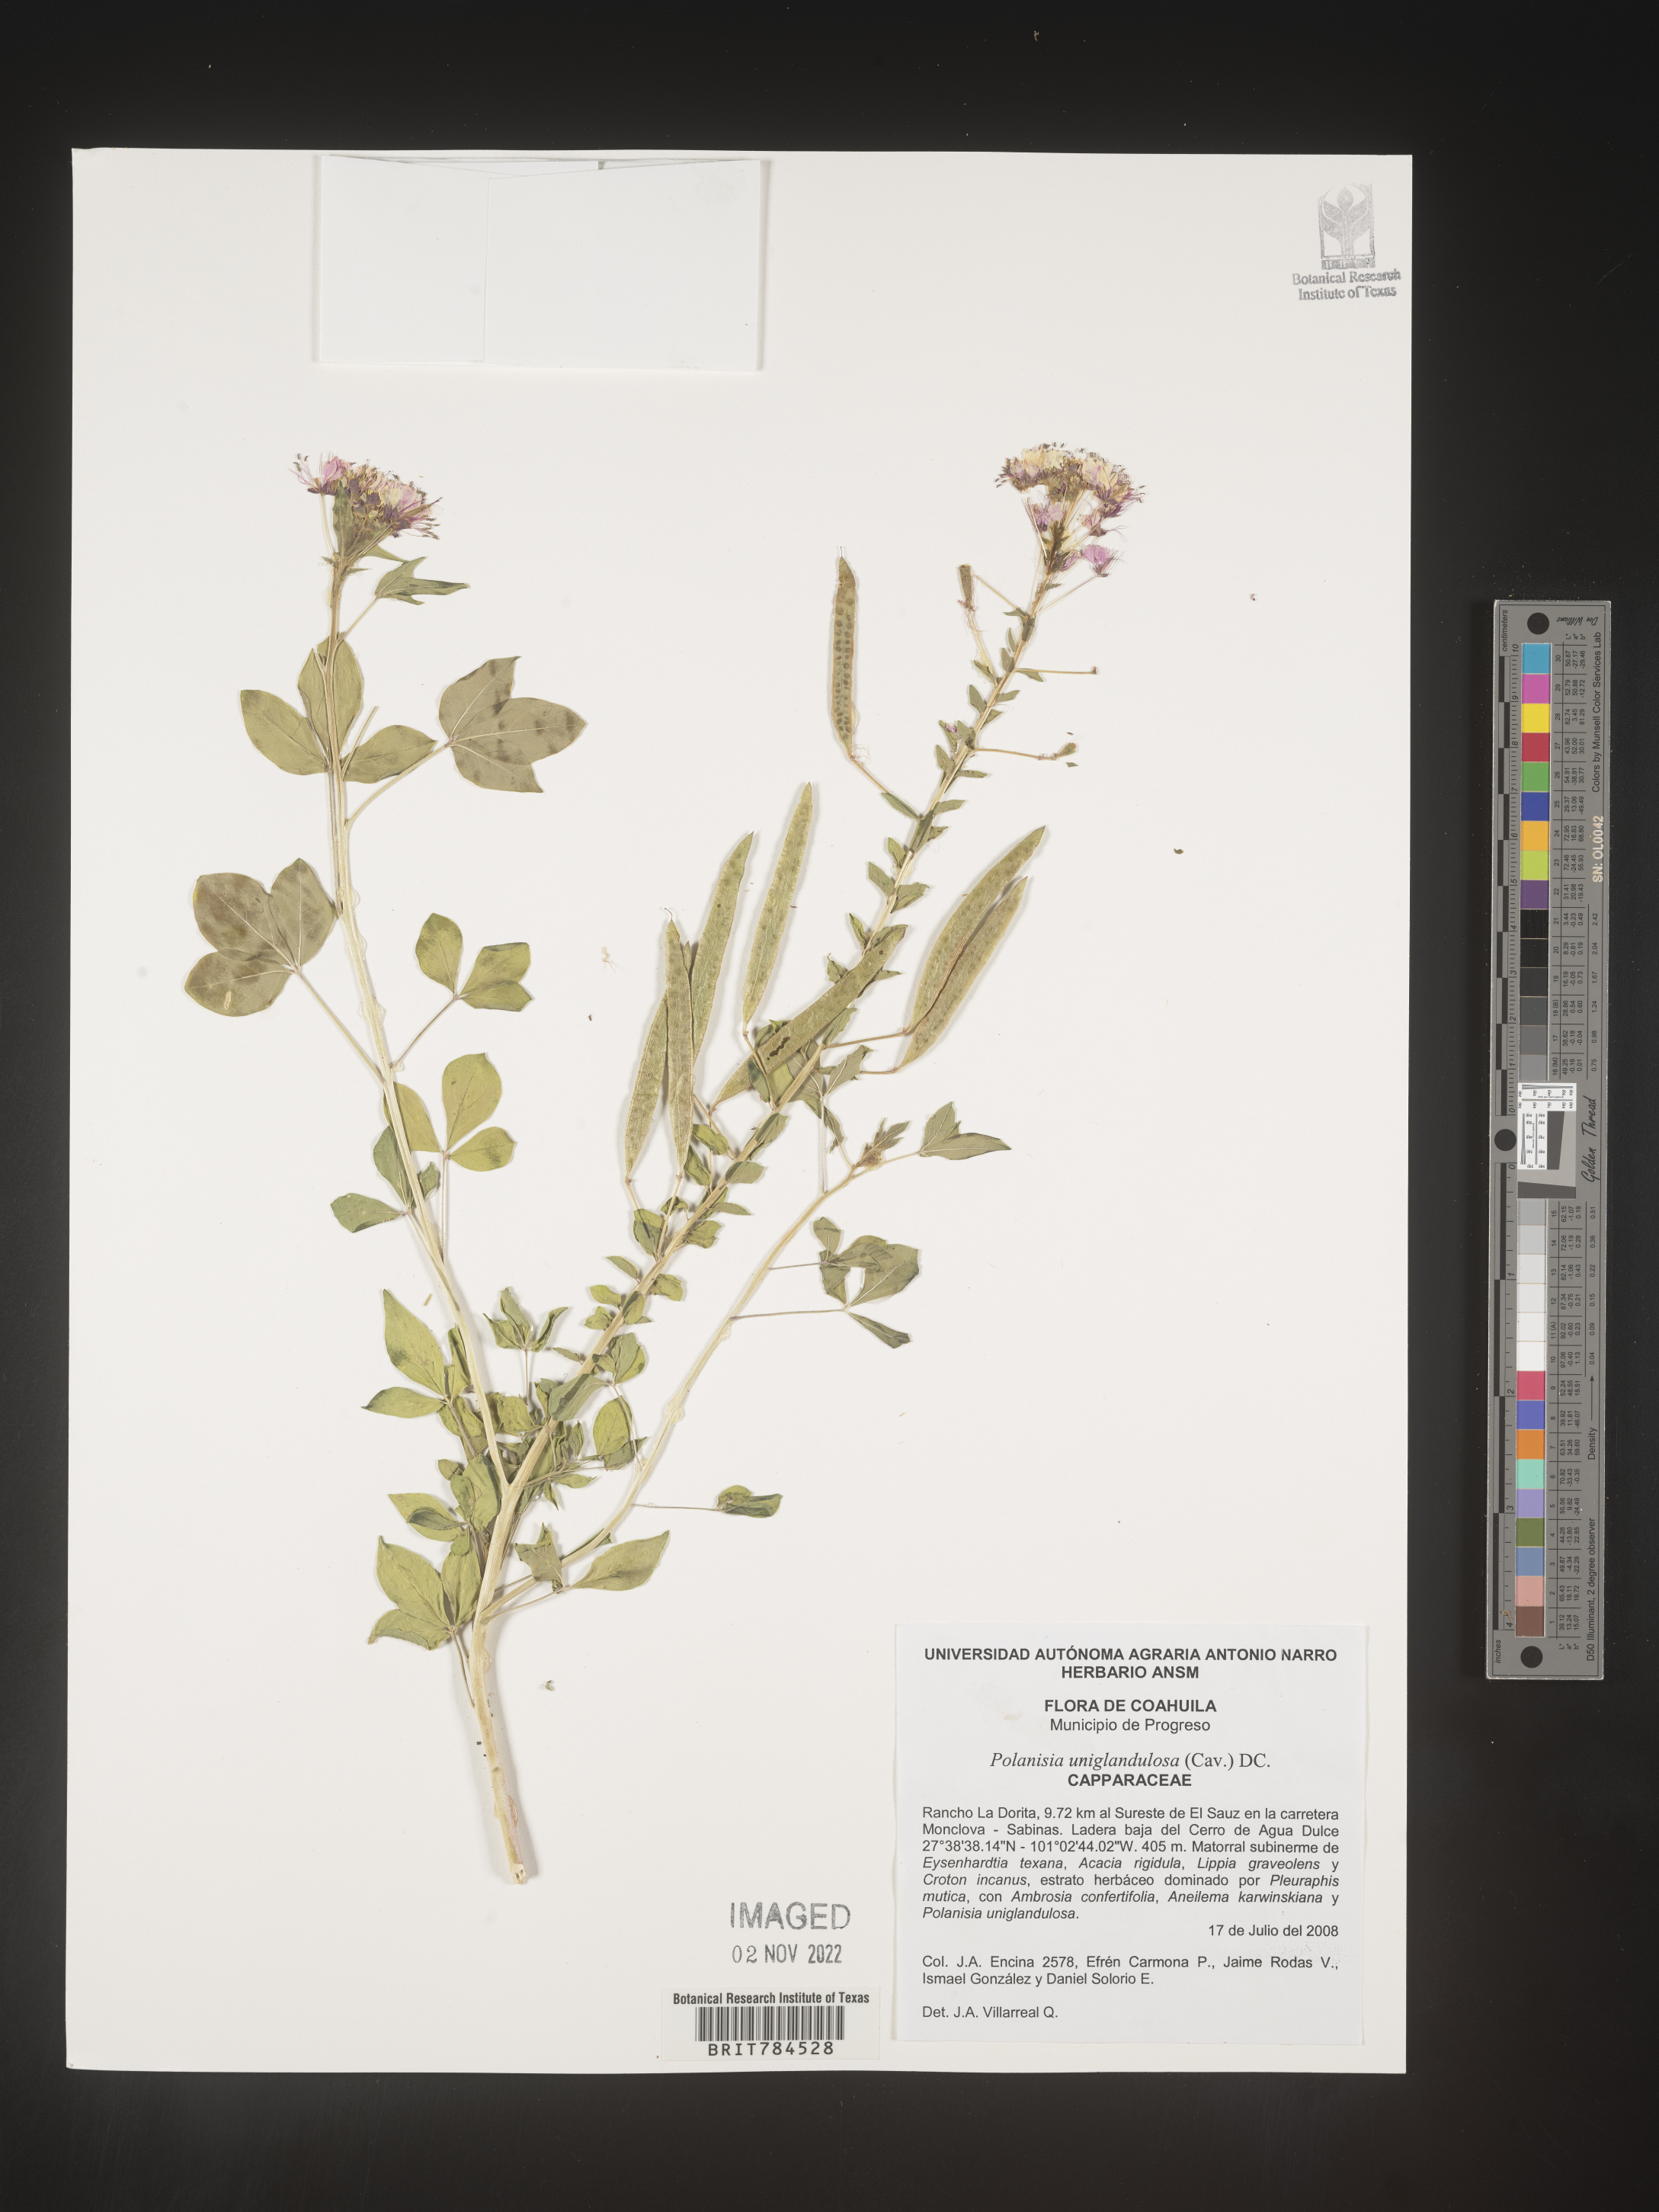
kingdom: Plantae
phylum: Tracheophyta
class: Magnoliopsida
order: Brassicales
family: Cleomaceae
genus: Polanisia
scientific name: Polanisia
